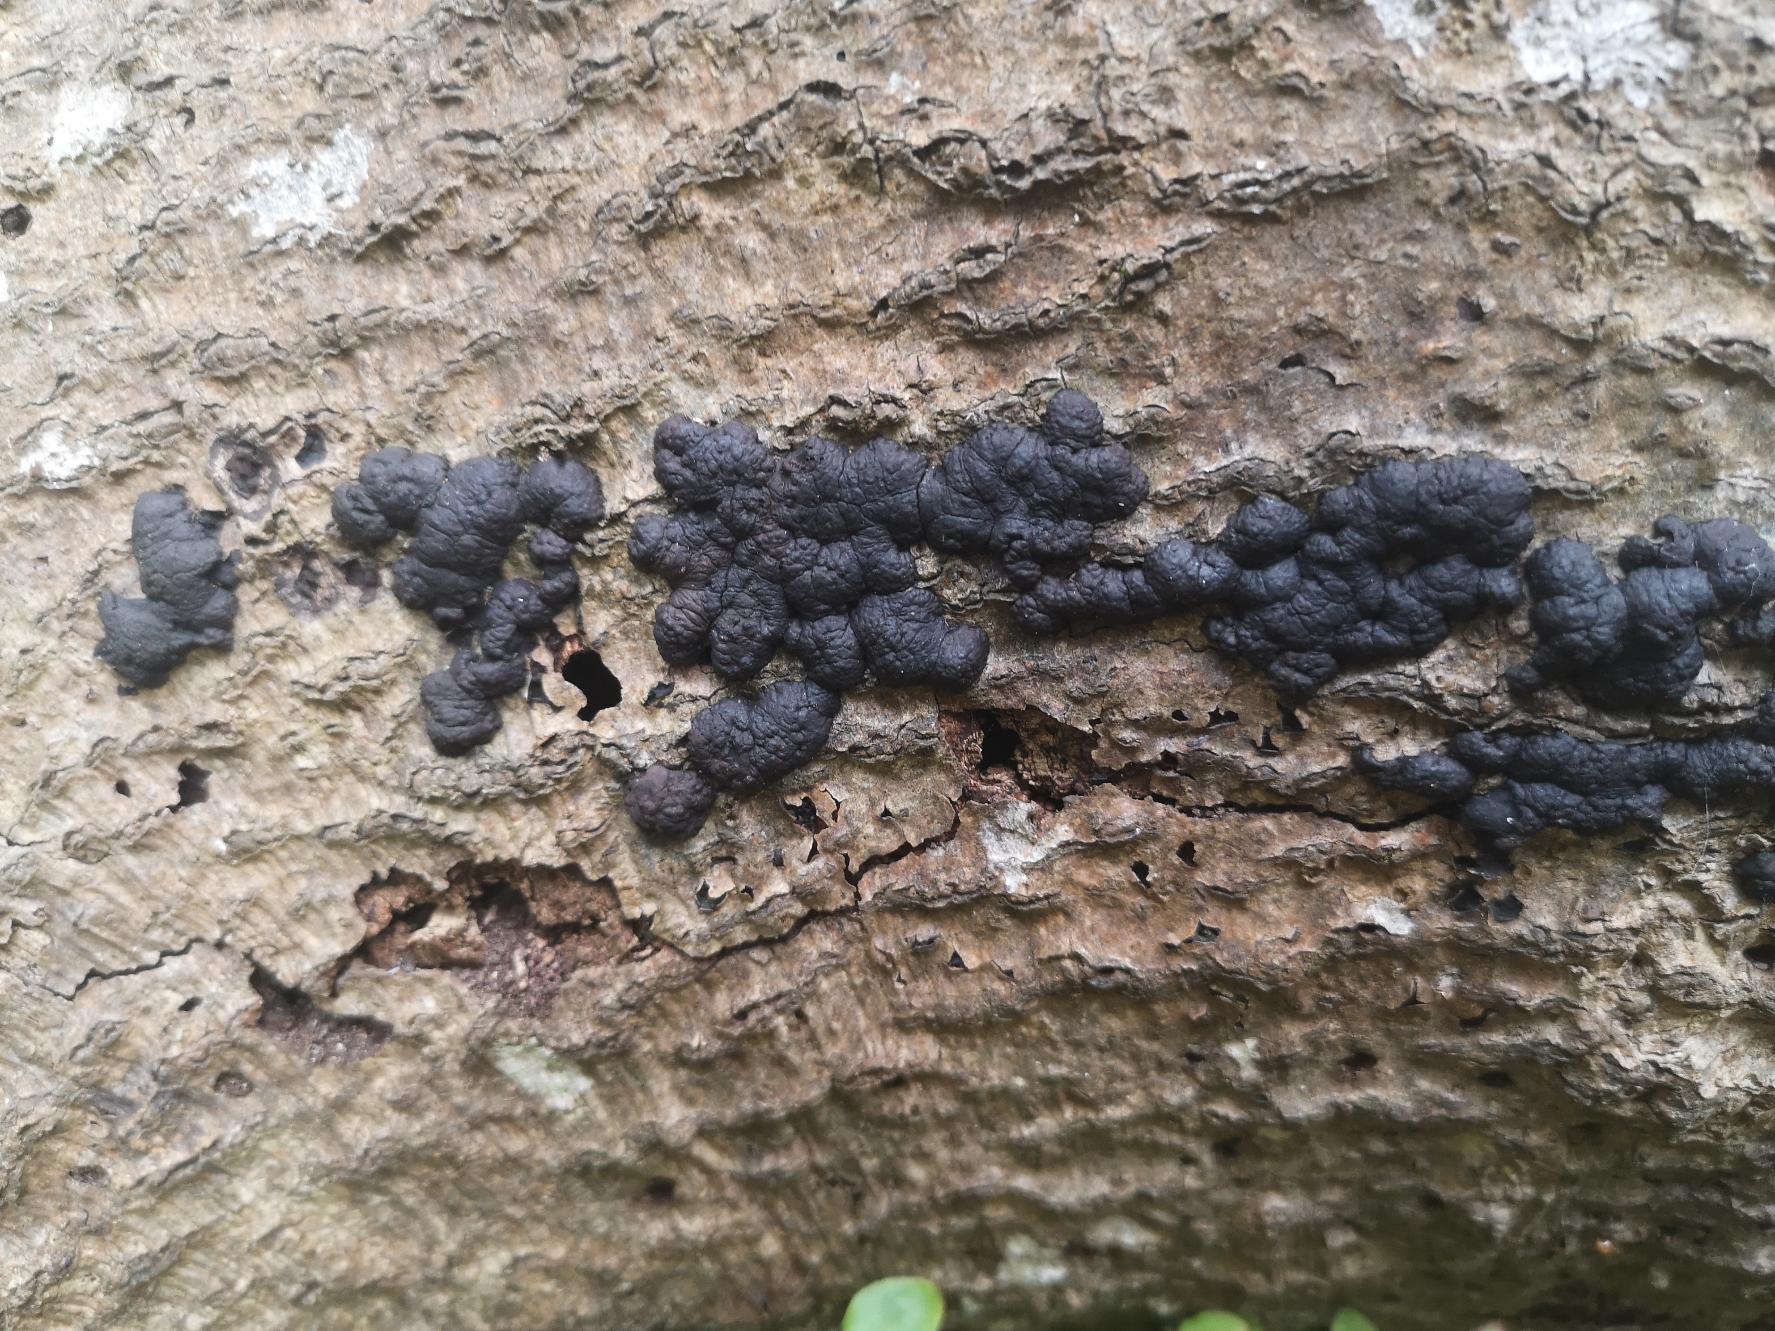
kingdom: Fungi
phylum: Ascomycota
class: Sordariomycetes
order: Xylariales
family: Hypoxylaceae
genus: Jackrogersella
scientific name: Jackrogersella cohaerens
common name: Sammenflydende kulbær
